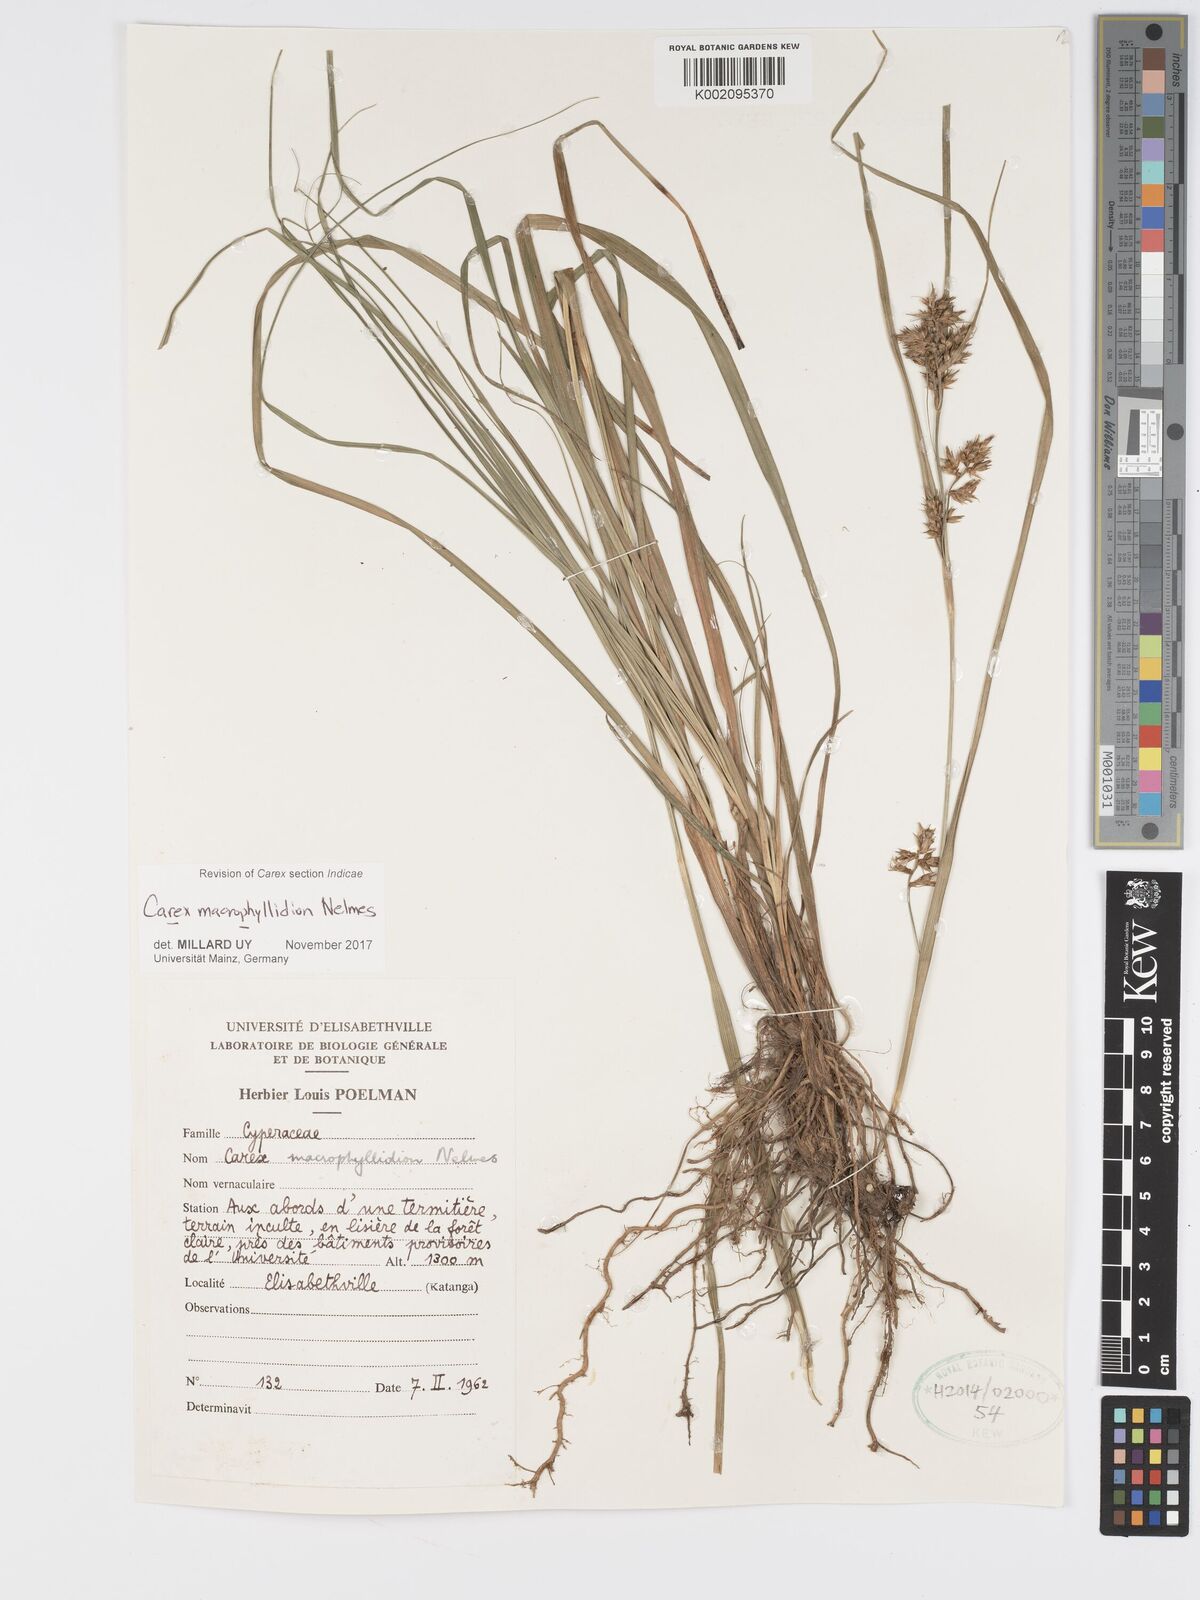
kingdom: Plantae
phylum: Tracheophyta
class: Liliopsida
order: Poales
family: Cyperaceae
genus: Carex
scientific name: Carex macrophyllidion
